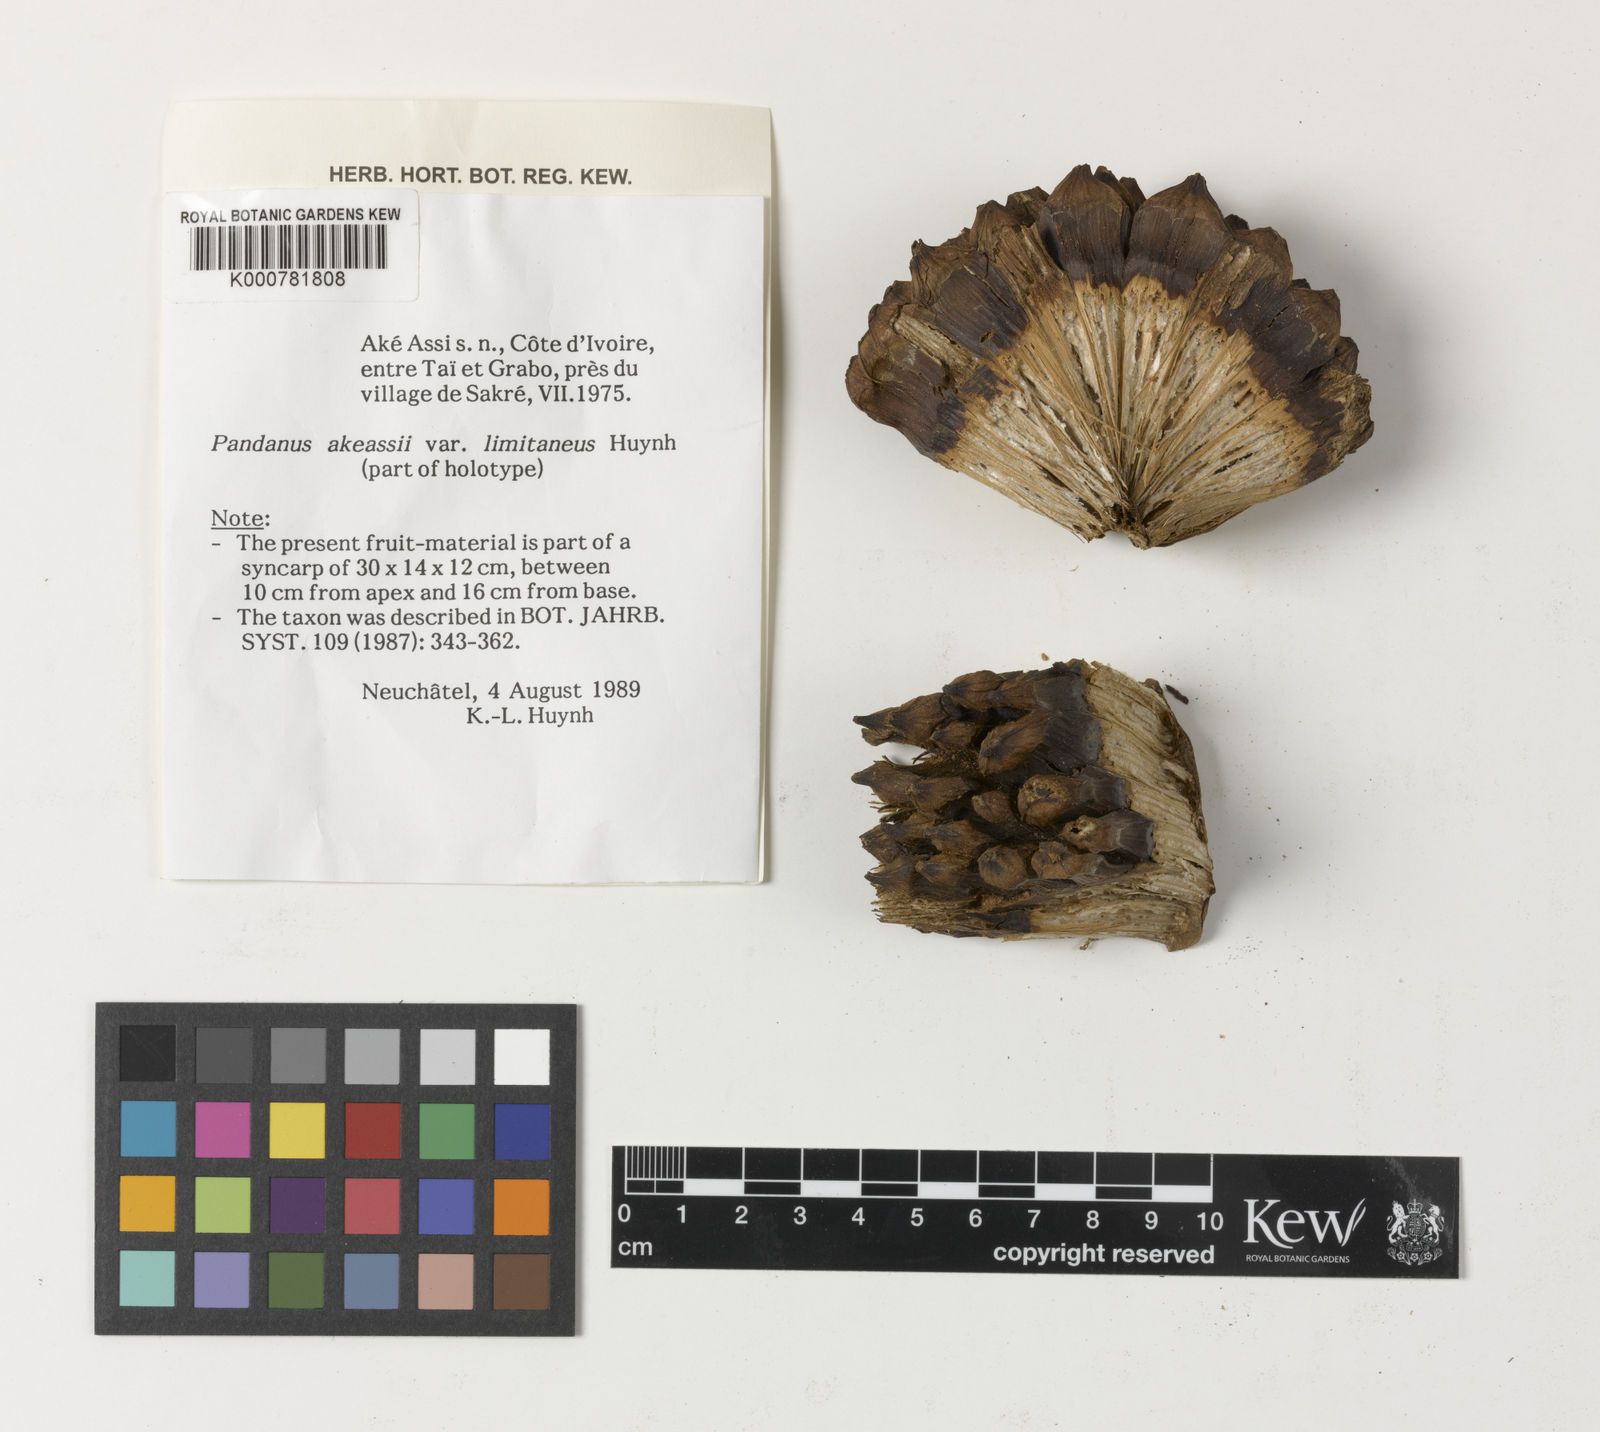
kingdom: Plantae
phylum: Tracheophyta
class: Liliopsida
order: Pandanales
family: Pandanaceae
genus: Pandanus
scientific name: Pandanus candelabrum
